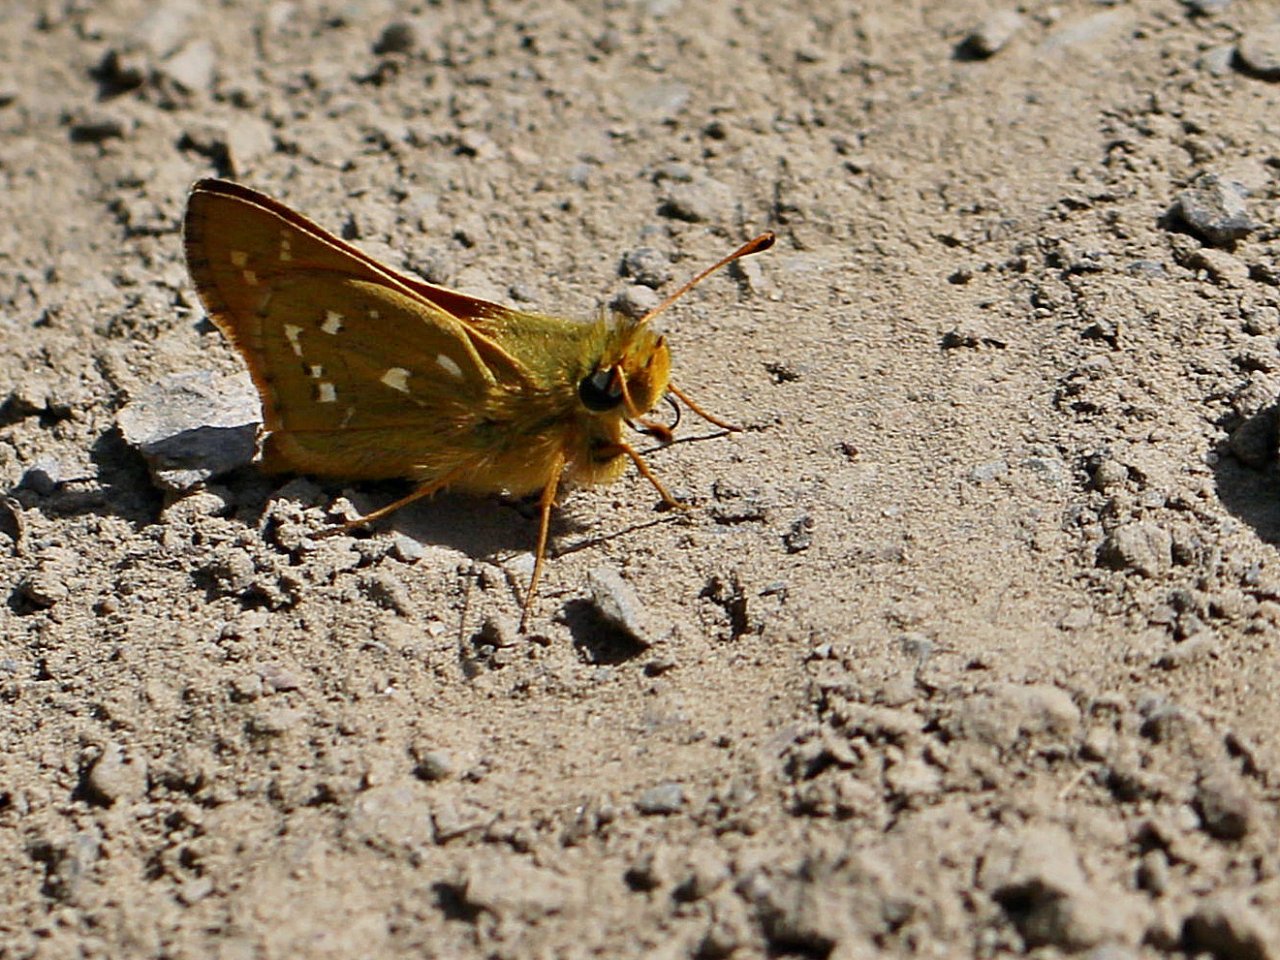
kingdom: Animalia
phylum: Arthropoda
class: Insecta
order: Lepidoptera
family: Hesperiidae
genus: Hesperia
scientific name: Hesperia comma
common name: Common Branded Skipper
